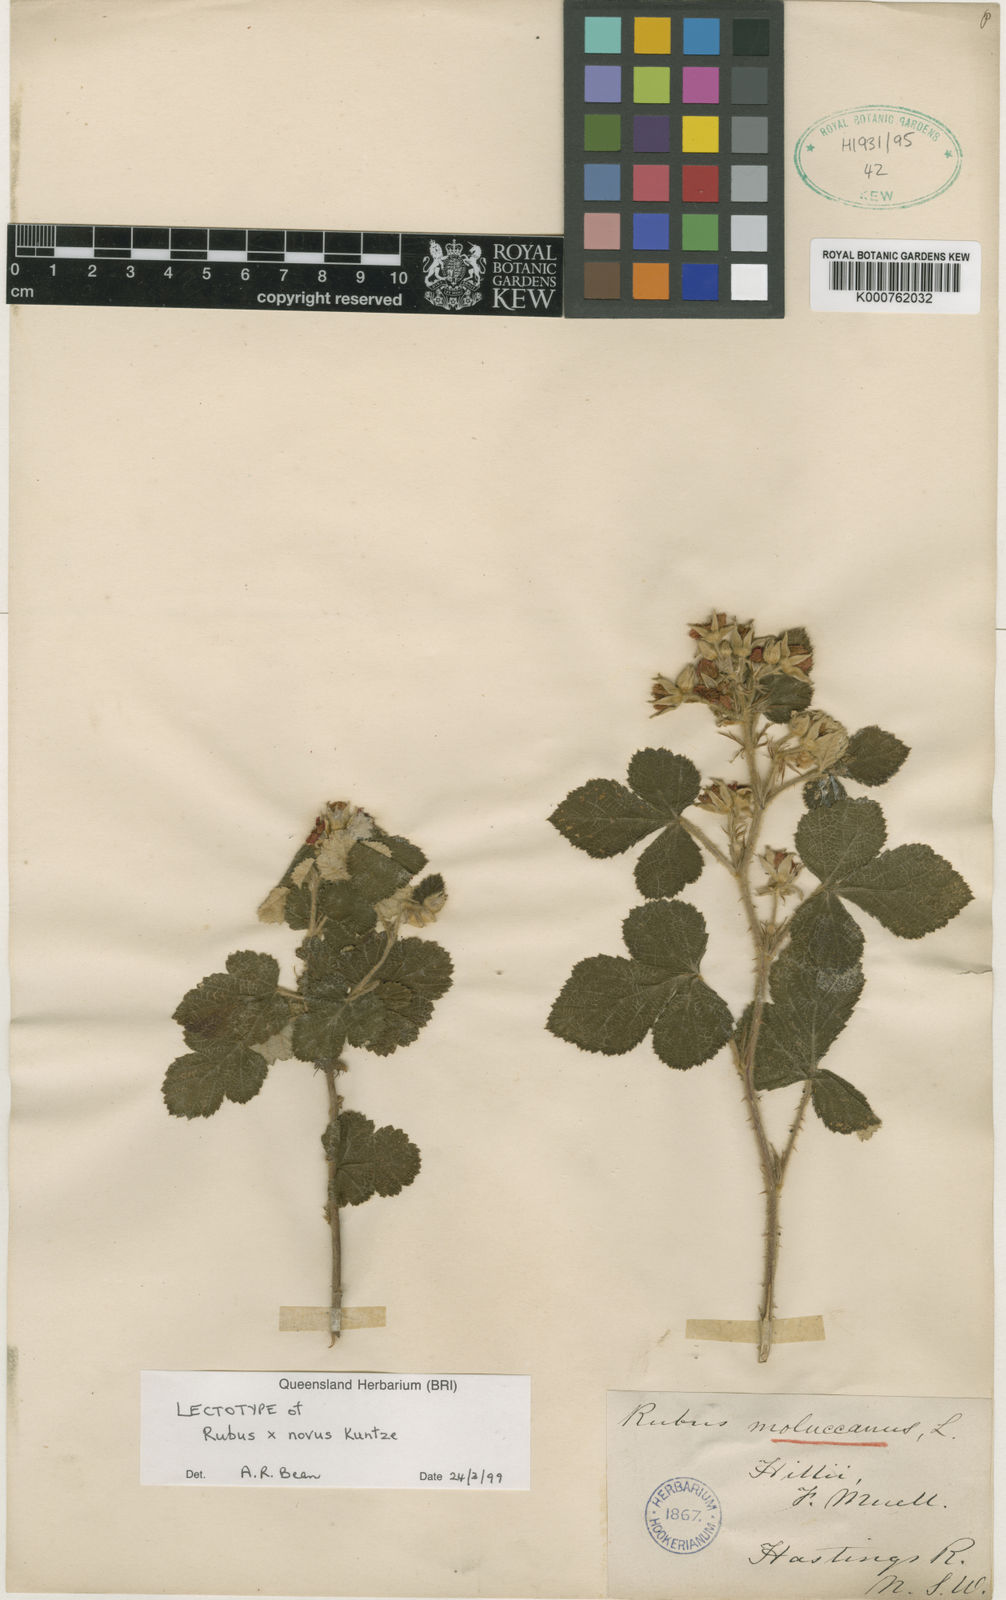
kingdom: Plantae
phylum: Tracheophyta
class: Magnoliopsida
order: Rosales
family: Rosaceae
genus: Rubus
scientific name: Rubus
